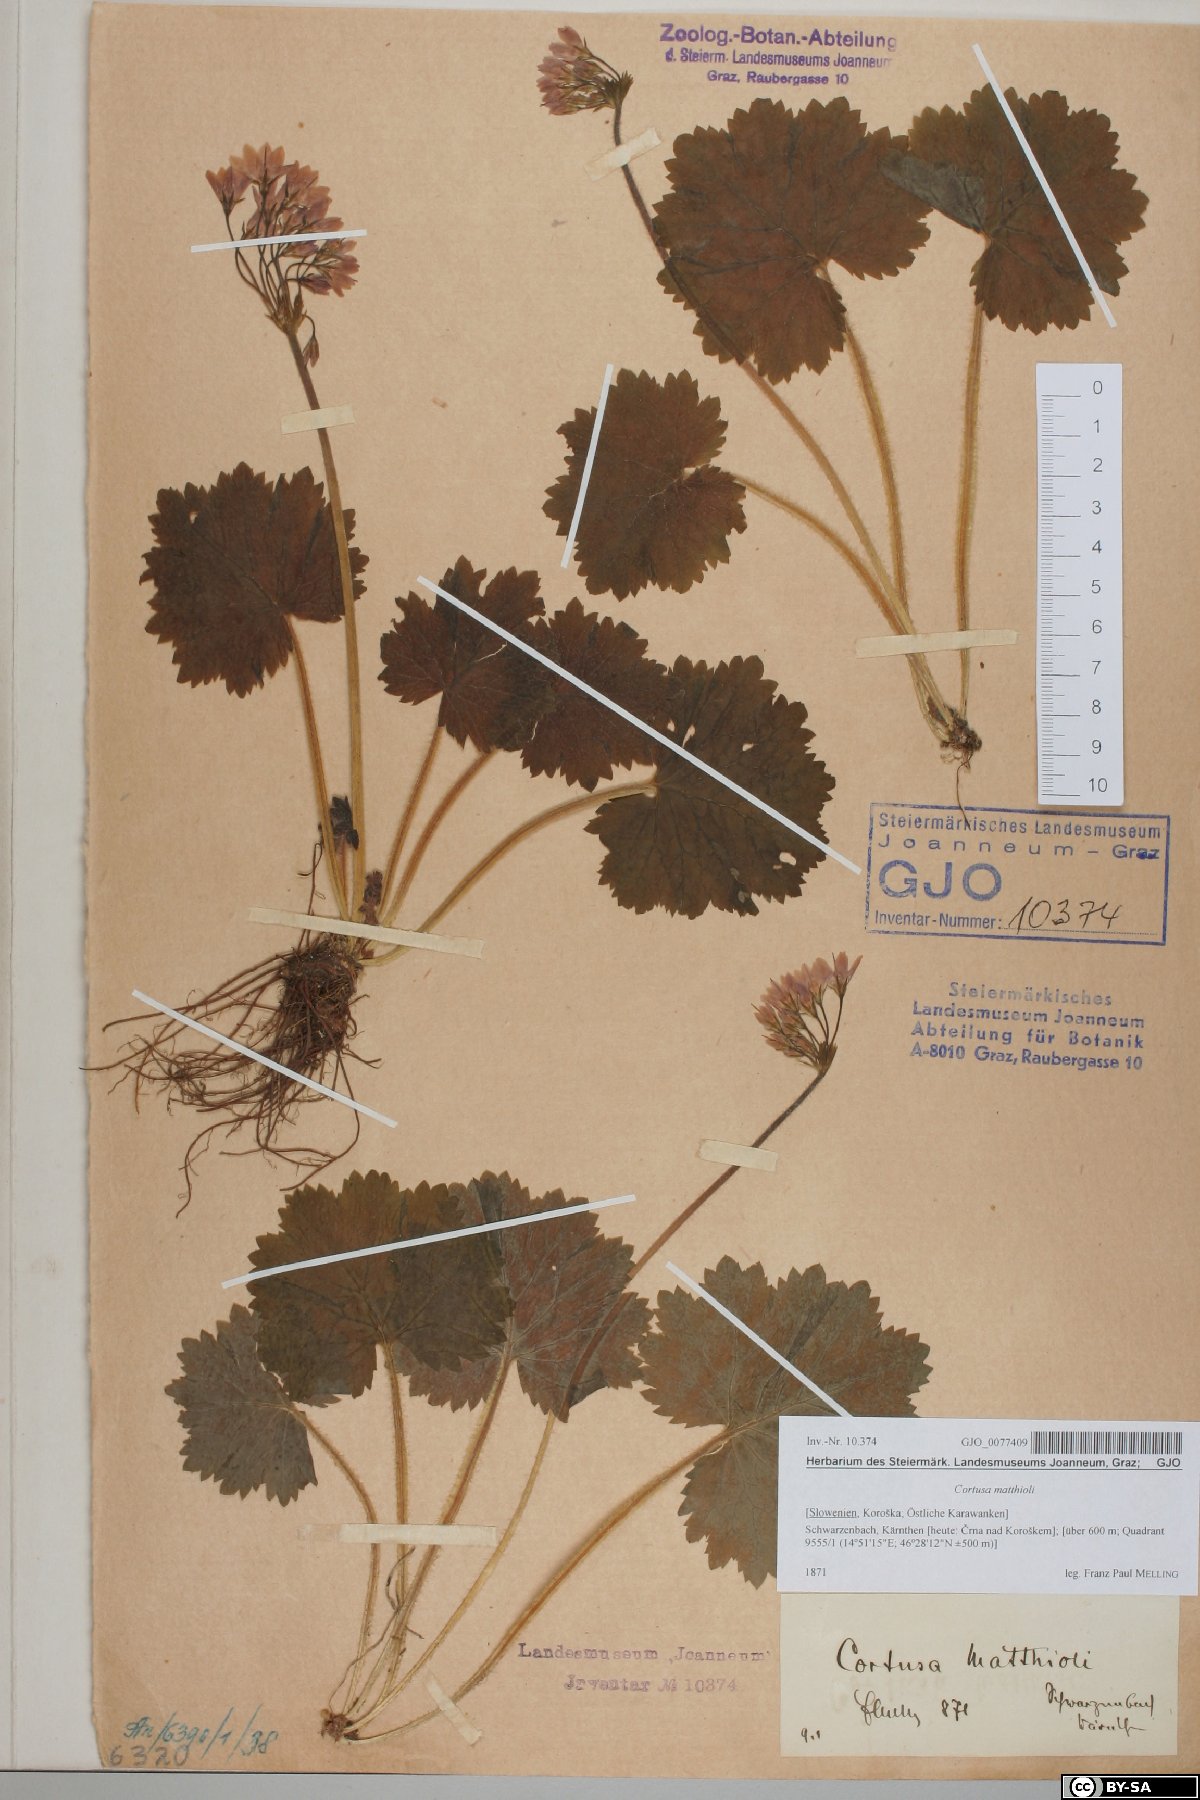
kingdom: Plantae
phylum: Tracheophyta
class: Magnoliopsida
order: Ericales
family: Primulaceae
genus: Primula
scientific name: Primula matthioli
